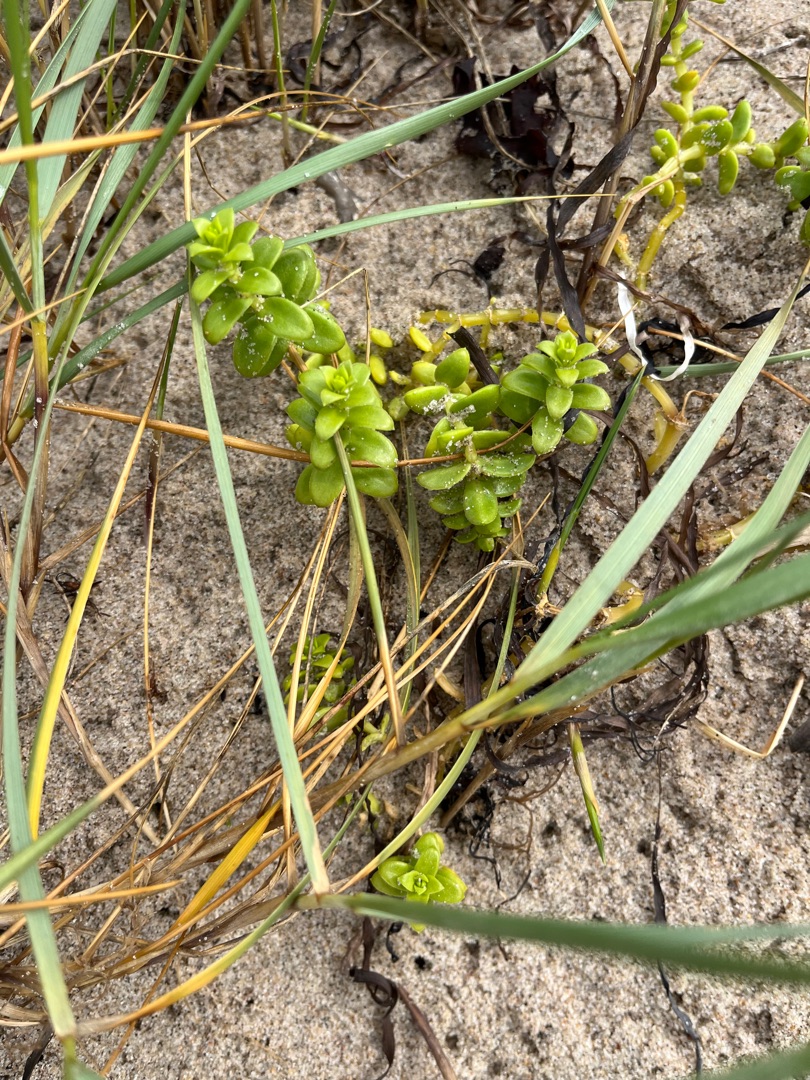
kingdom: Plantae
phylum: Tracheophyta
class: Magnoliopsida
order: Caryophyllales
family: Caryophyllaceae
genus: Honckenya
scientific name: Honckenya peploides
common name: Strandarve
